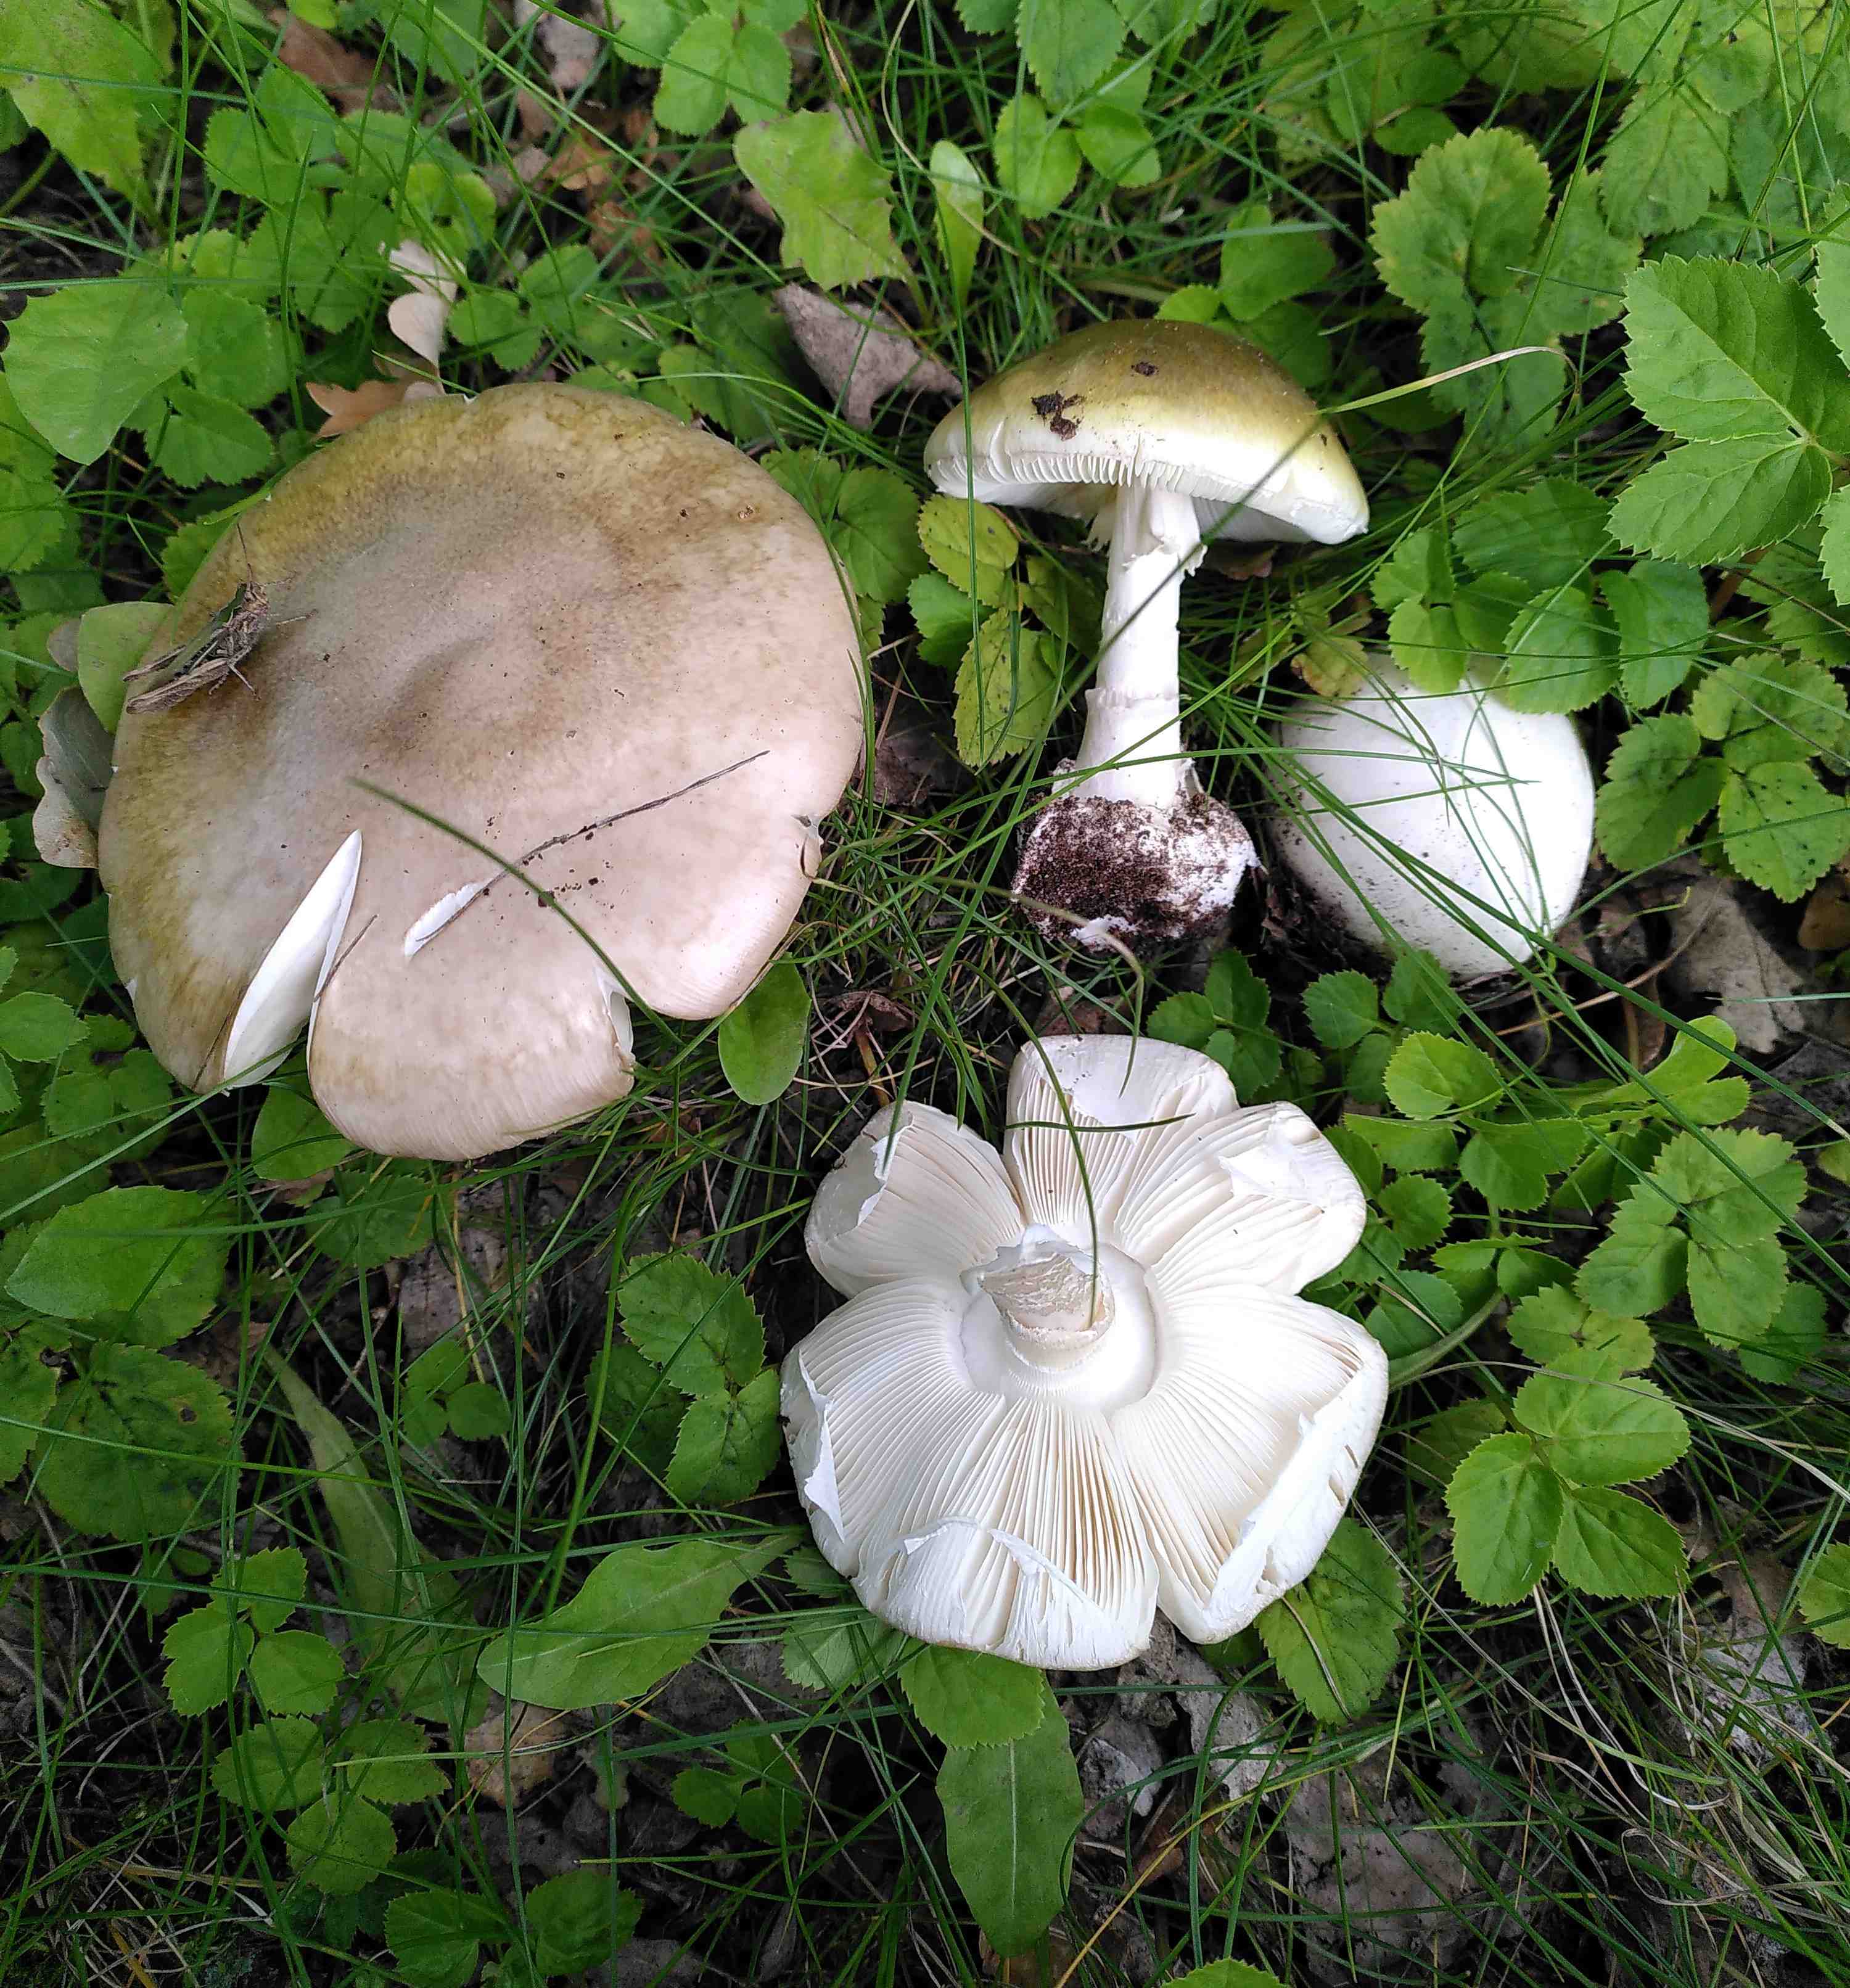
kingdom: Fungi
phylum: Basidiomycota
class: Agaricomycetes
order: Agaricales
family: Amanitaceae
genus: Amanita
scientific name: Amanita phalloides
